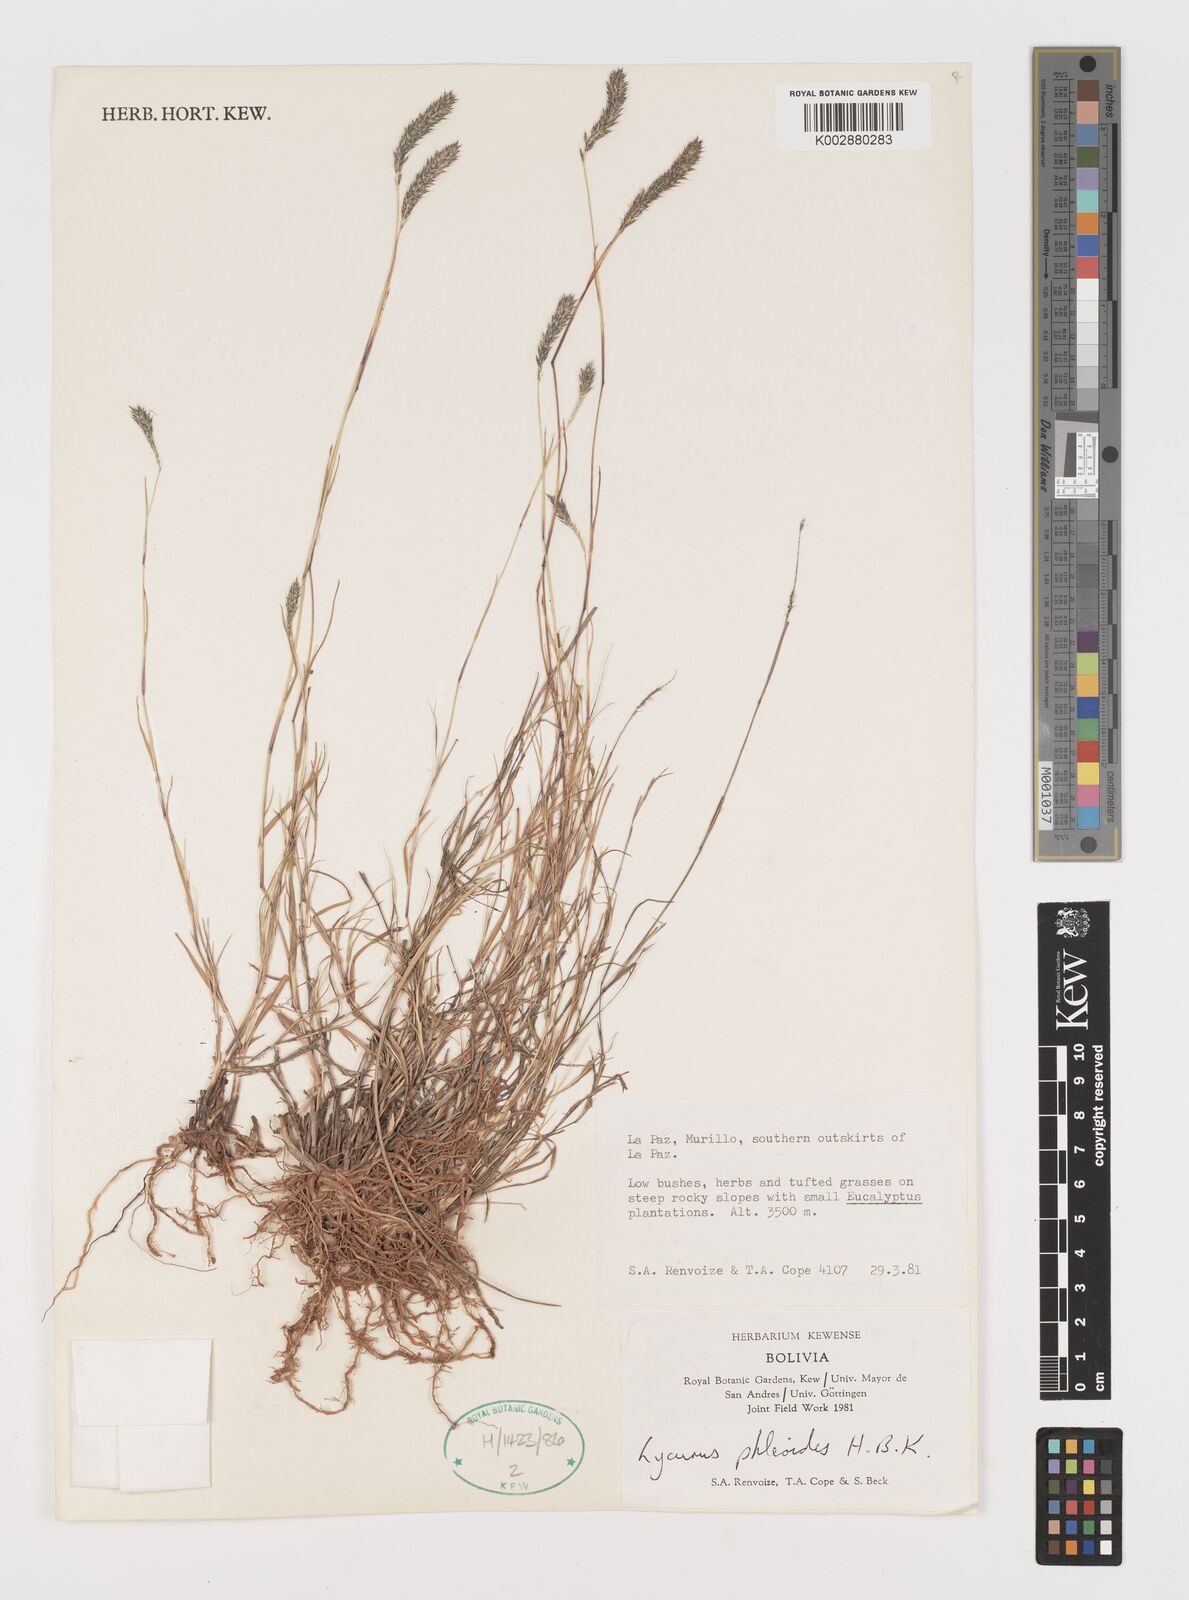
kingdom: Plantae
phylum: Tracheophyta
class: Liliopsida
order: Poales
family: Poaceae
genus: Muhlenbergia
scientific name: Muhlenbergia phleoides
